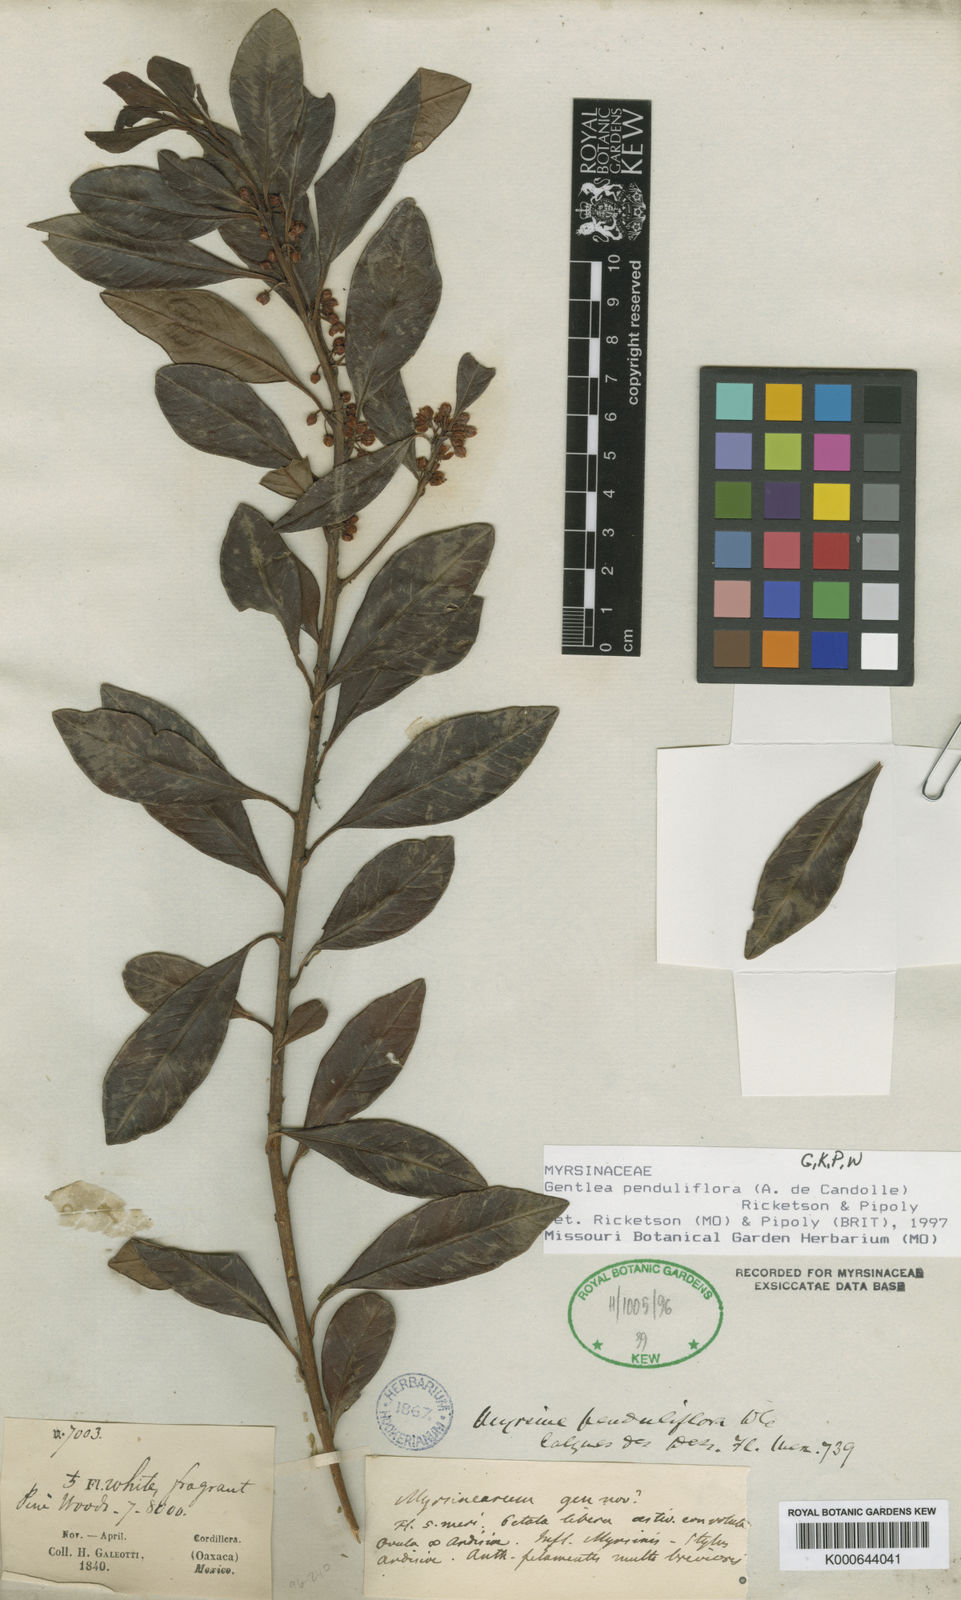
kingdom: Plantae
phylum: Tracheophyta
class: Magnoliopsida
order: Ericales
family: Primulaceae
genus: Gentlea
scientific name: Gentlea penduliflora
